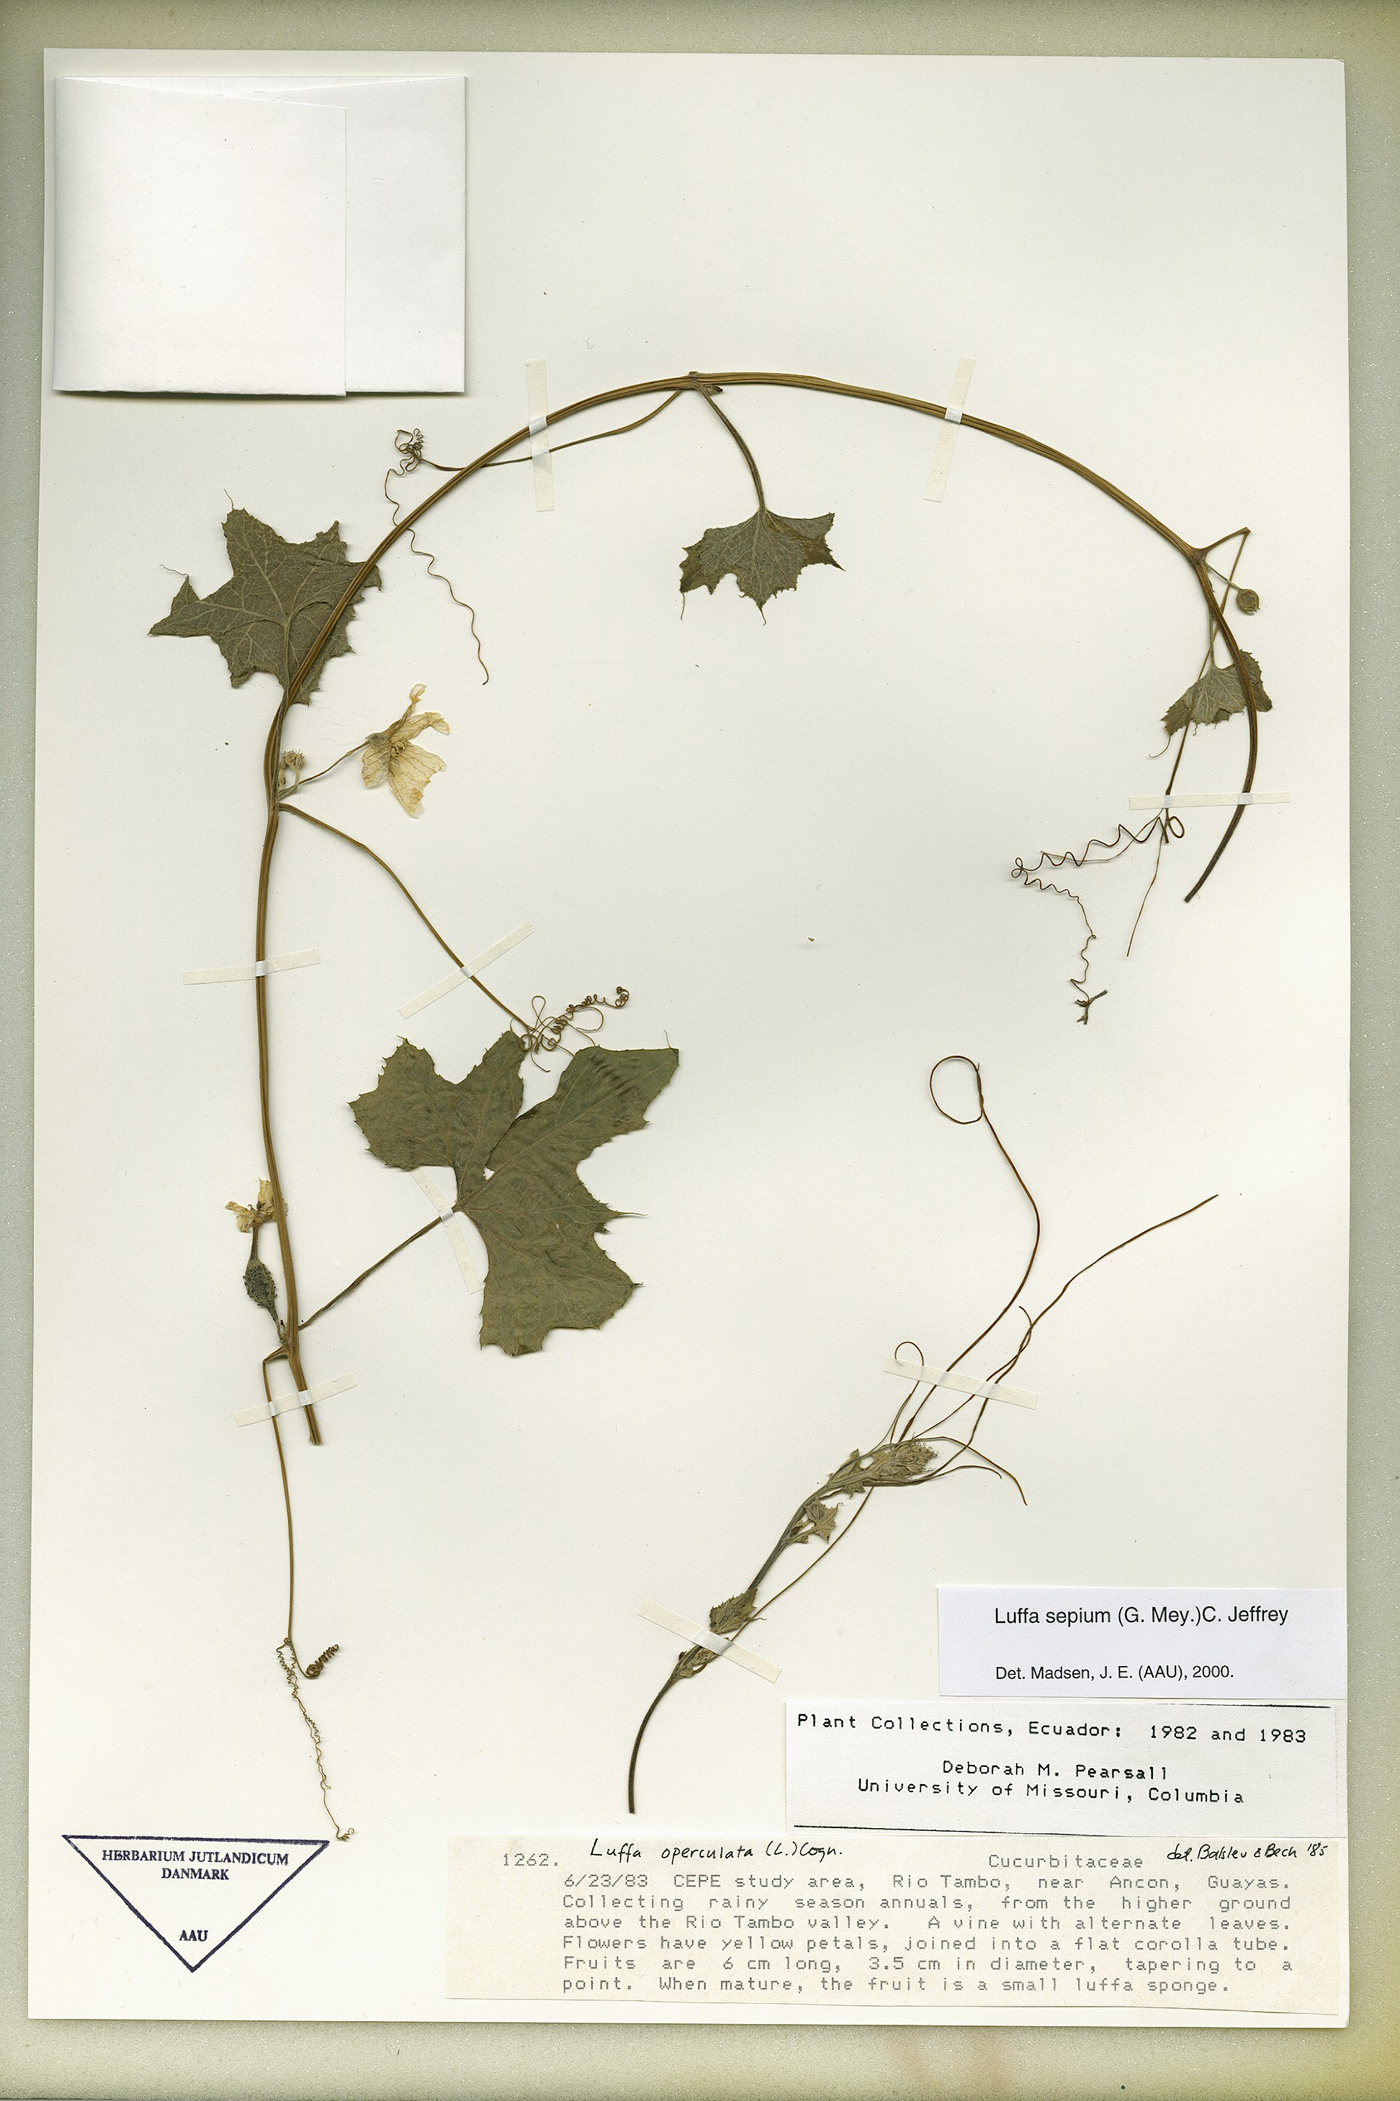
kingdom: Plantae
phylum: Tracheophyta
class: Magnoliopsida
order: Cucurbitales
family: Cucurbitaceae
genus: Luffa
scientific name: Luffa astorii
